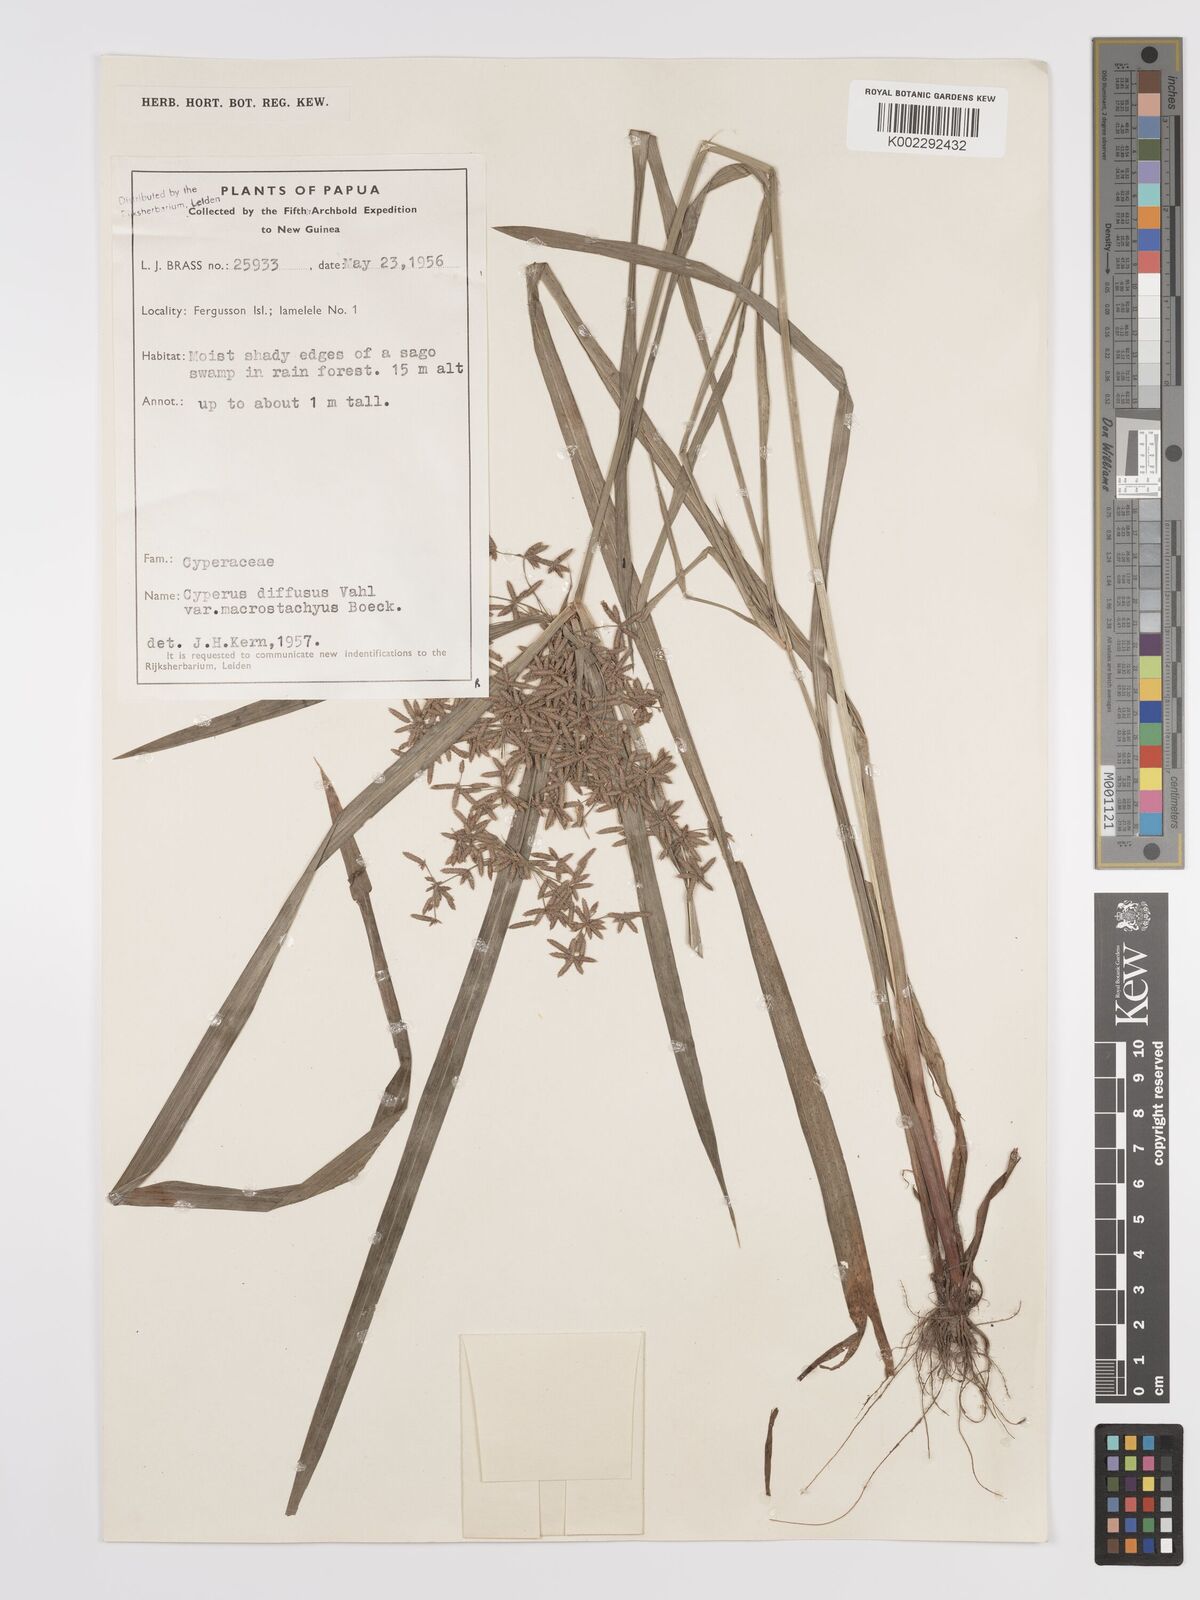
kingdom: Plantae
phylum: Tracheophyta
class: Liliopsida
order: Poales
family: Cyperaceae
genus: Cyperus
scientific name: Cyperus diffusus
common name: Dwarf umbrella grass
